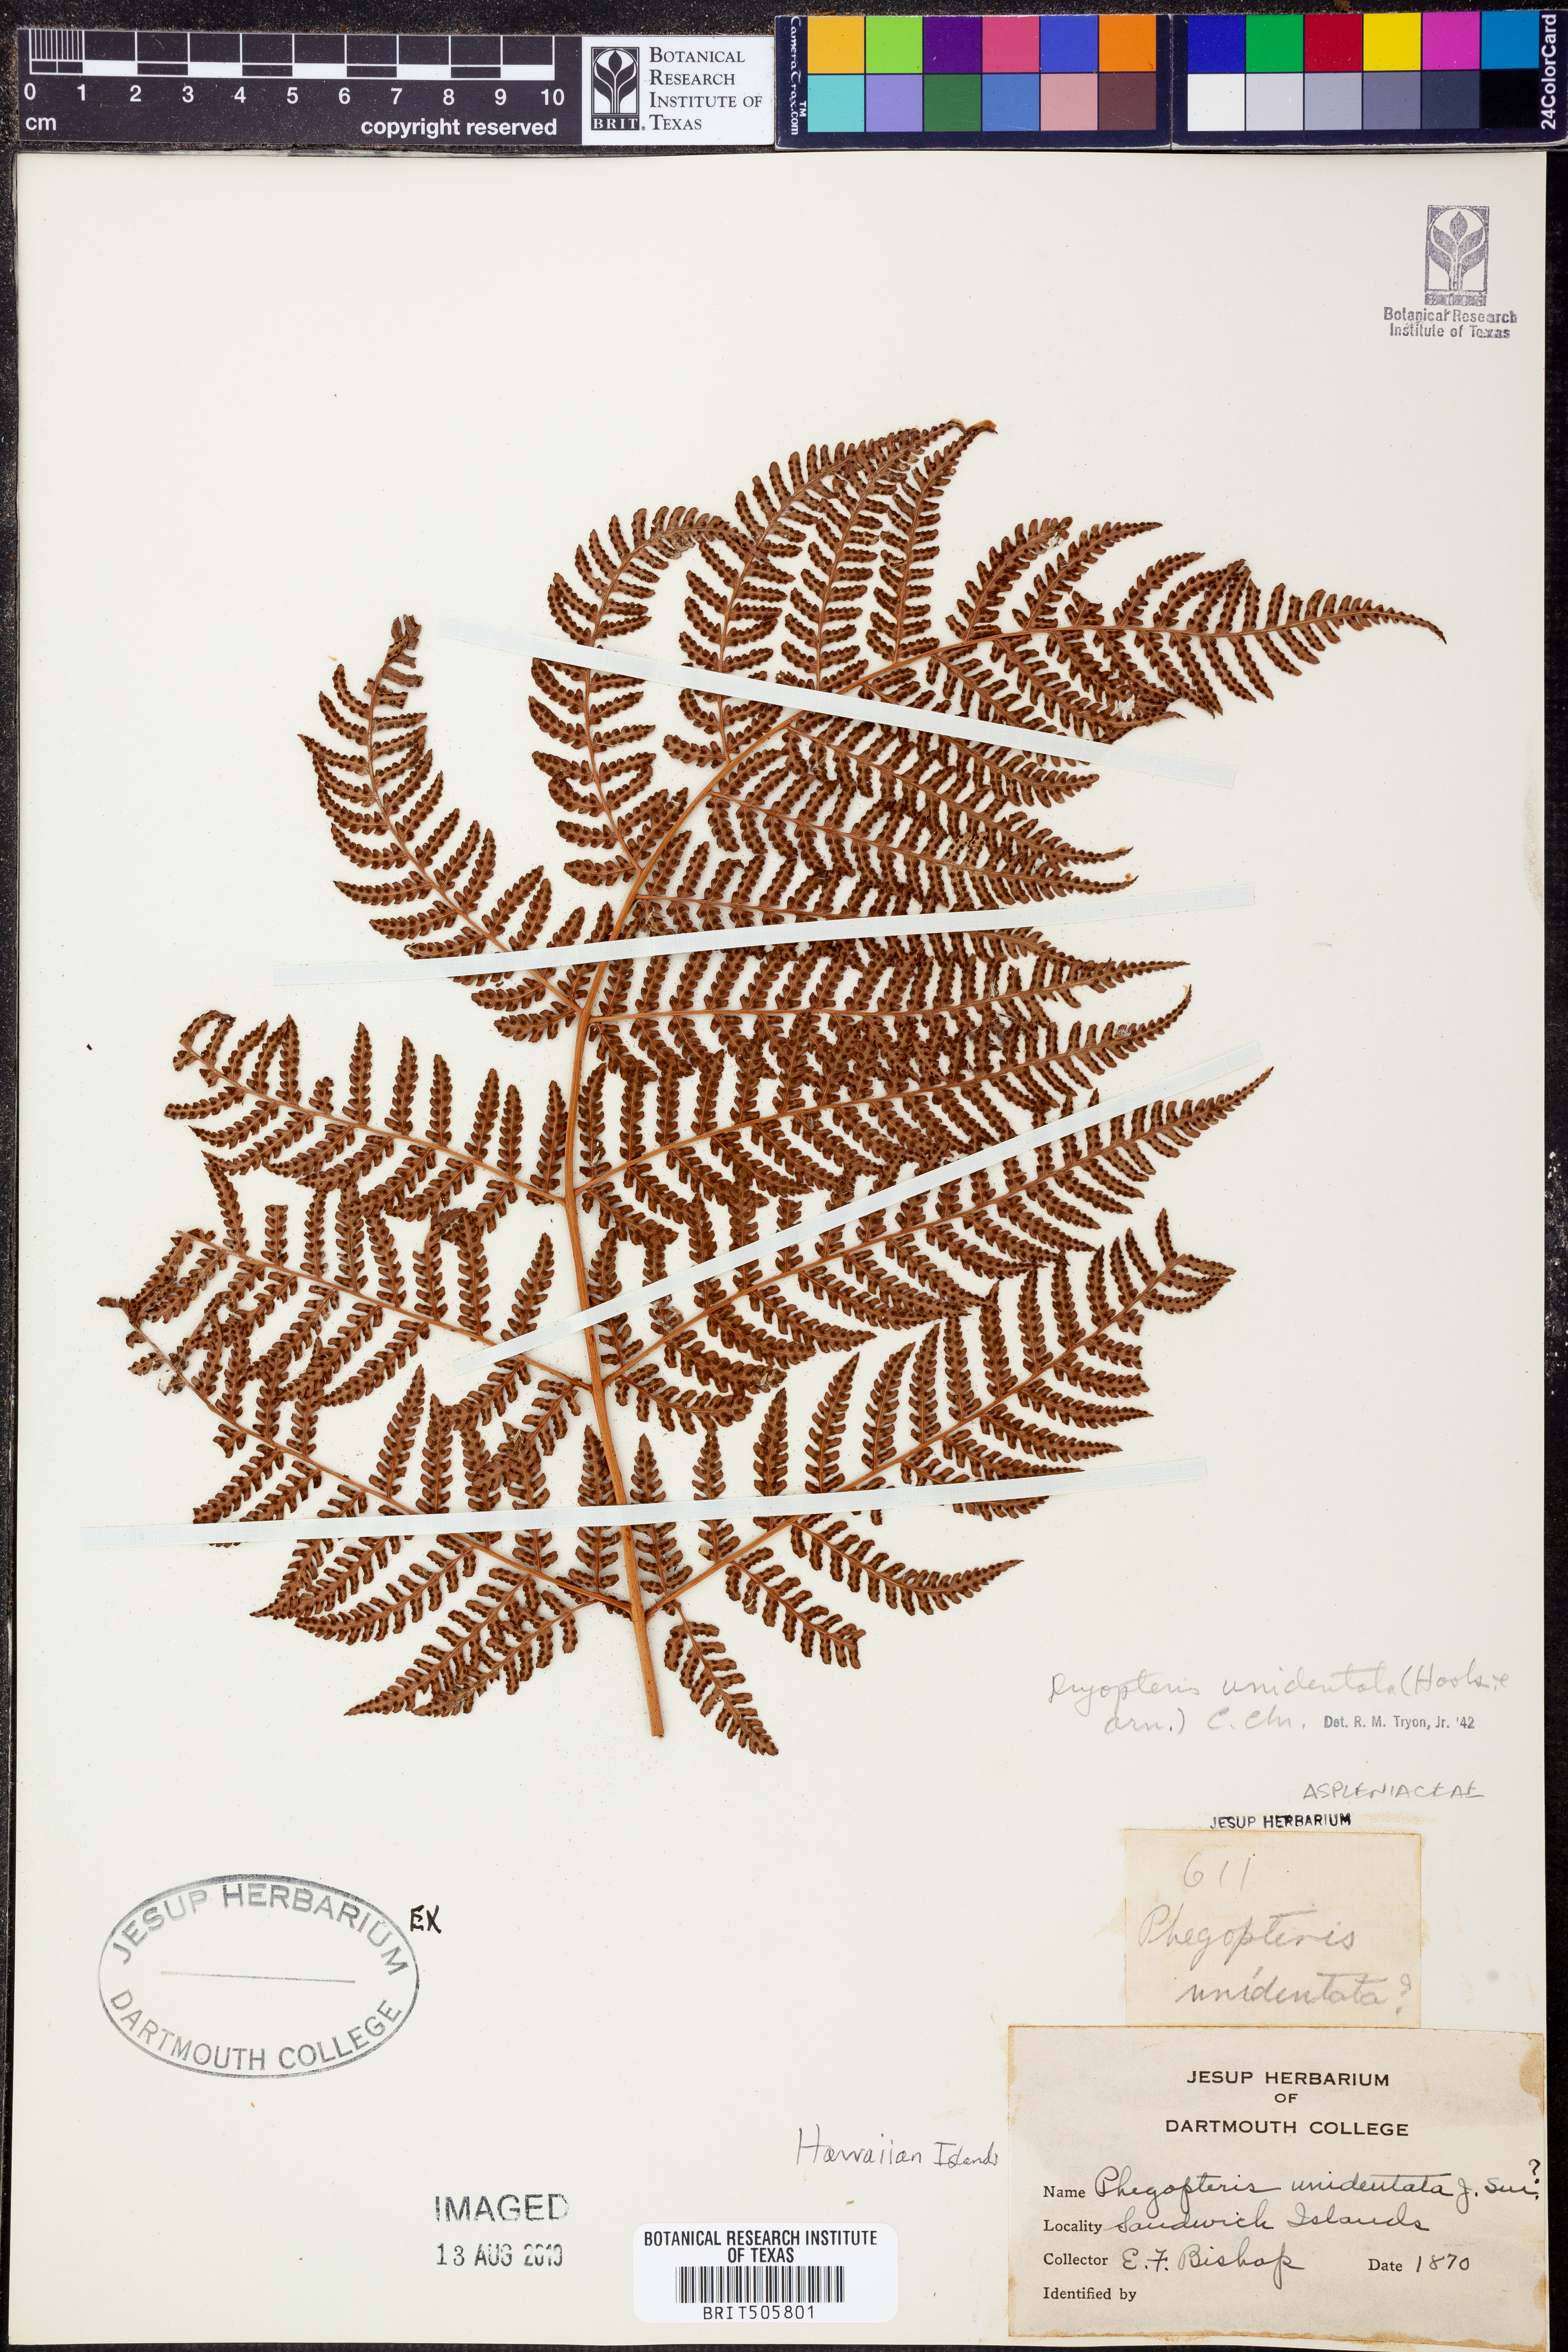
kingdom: Plantae
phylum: Tracheophyta
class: Polypodiopsida
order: Polypodiales
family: Dryopteridaceae
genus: Dryopteris
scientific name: Dryopteris unidentata
